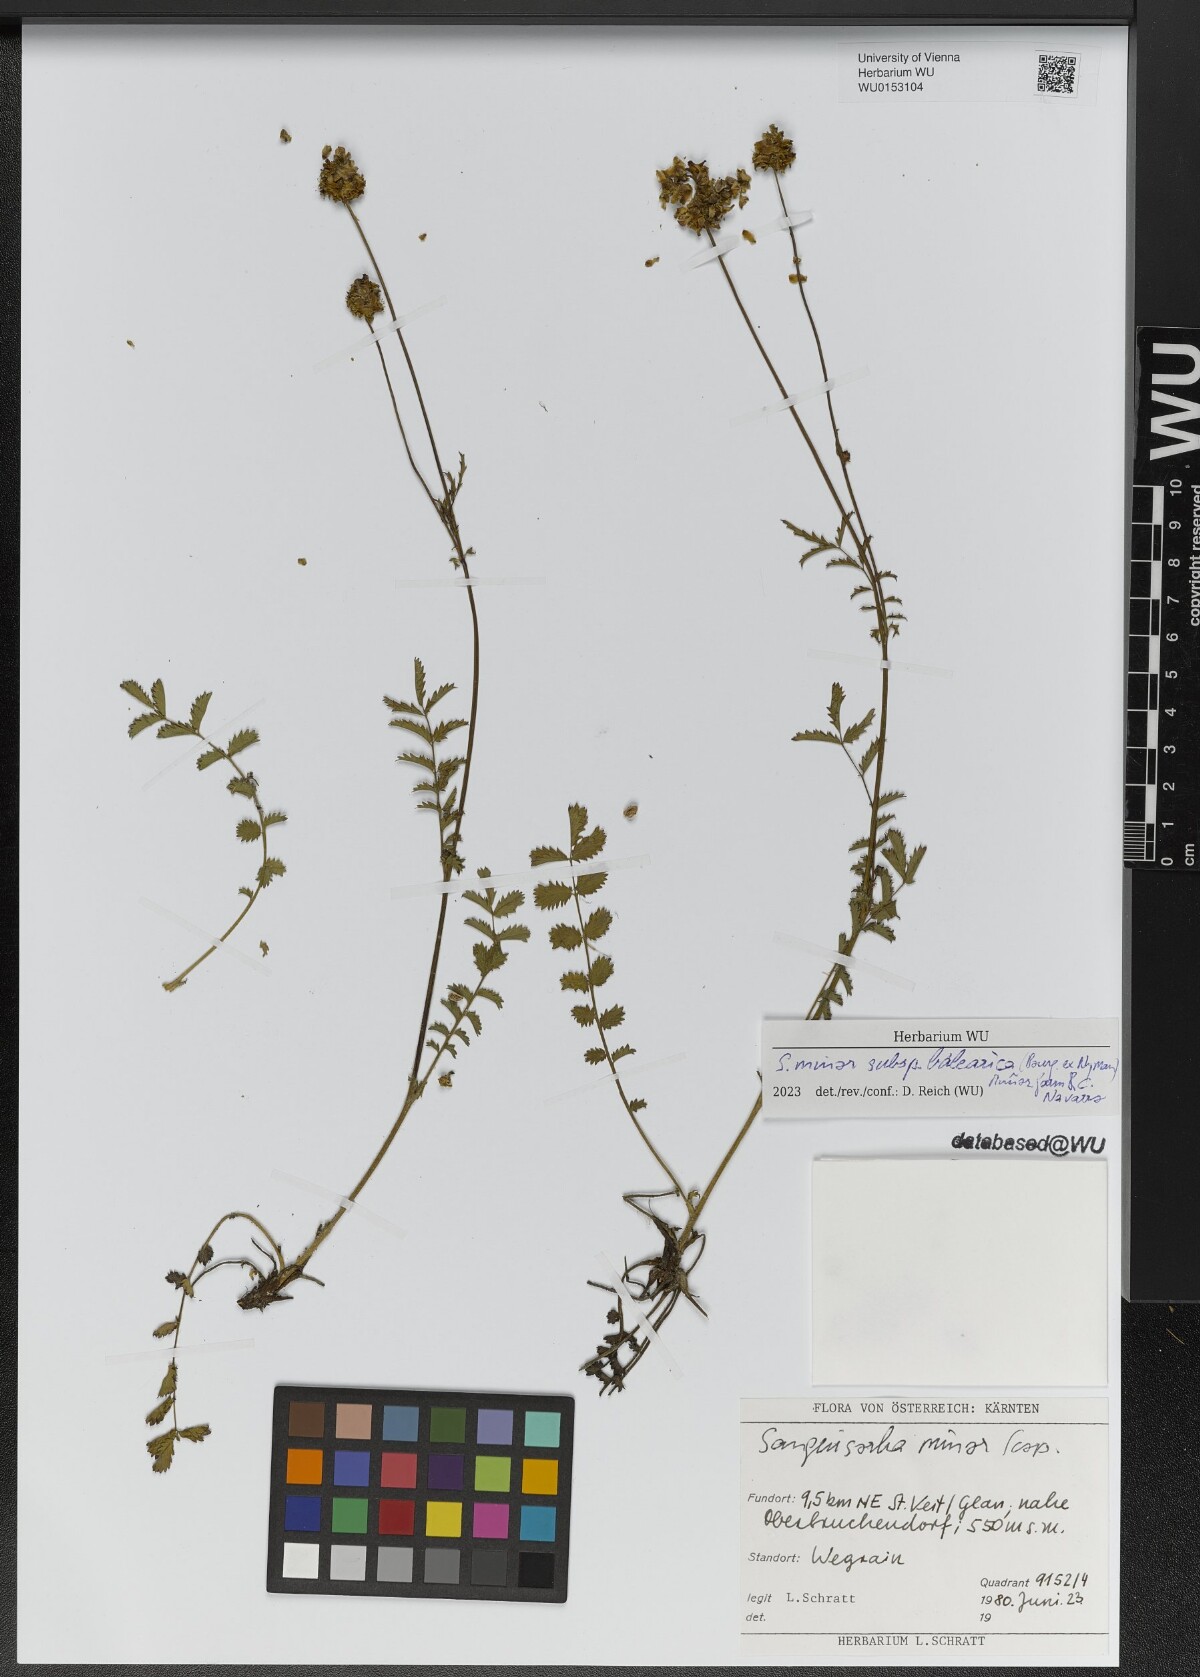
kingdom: Plantae
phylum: Tracheophyta
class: Magnoliopsida
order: Rosales
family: Rosaceae
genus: Poterium
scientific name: Poterium sanguisorba
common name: Salad burnet
